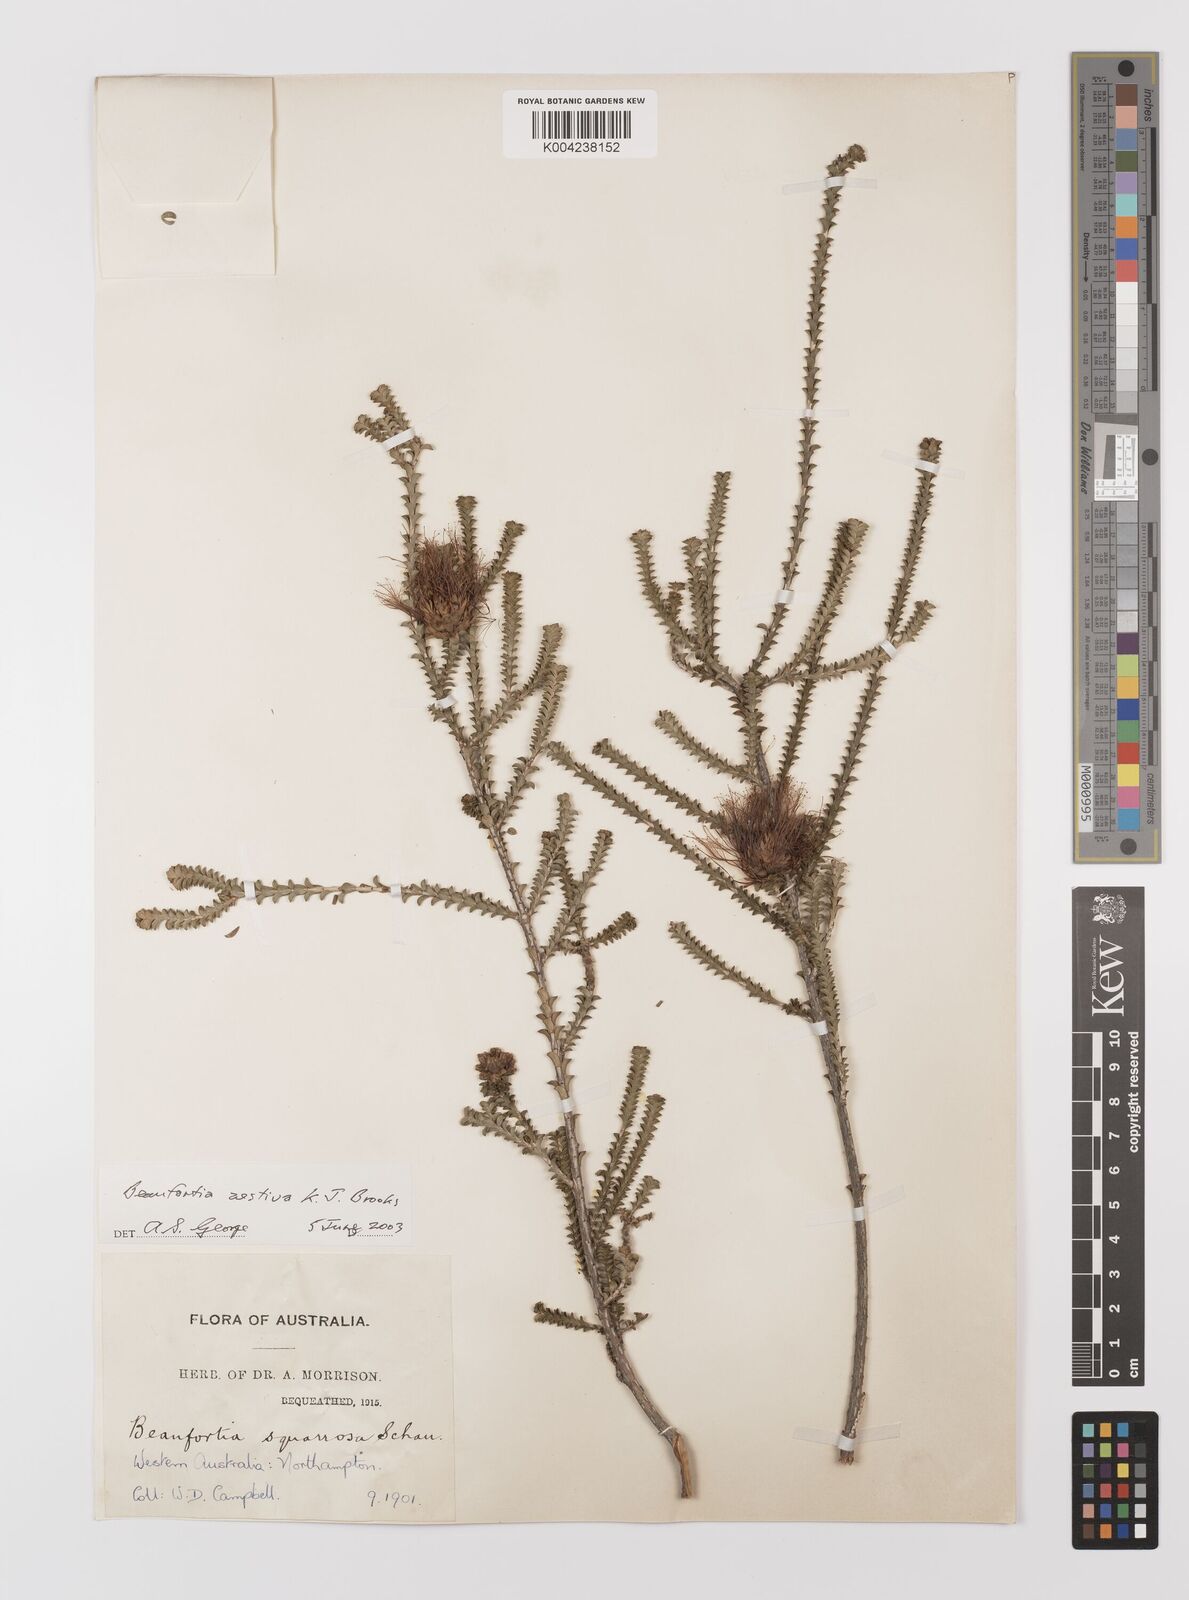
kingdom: Plantae
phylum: Tracheophyta
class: Magnoliopsida
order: Myrtales
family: Myrtaceae
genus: Melaleuca
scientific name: Melaleuca aestiva
